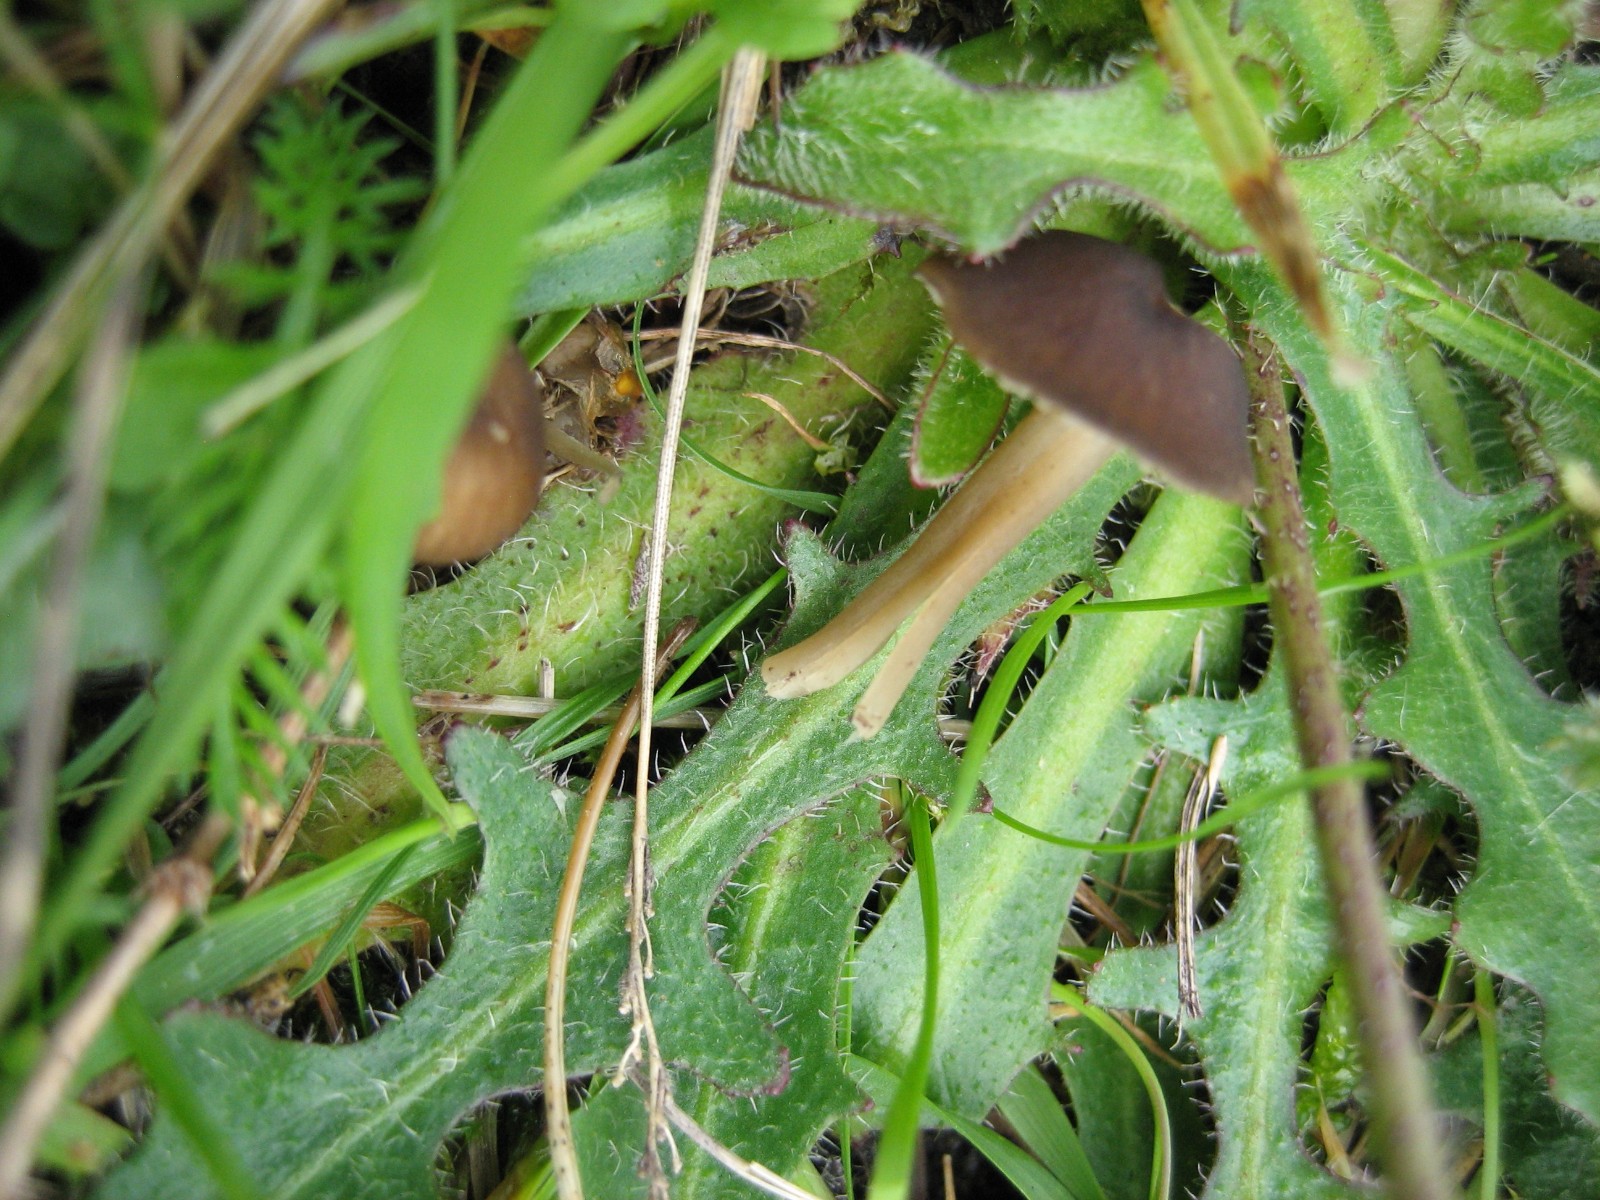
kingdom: Fungi
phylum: Basidiomycota
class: Agaricomycetes
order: Agaricales
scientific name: Agaricales
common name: champignonordenen
